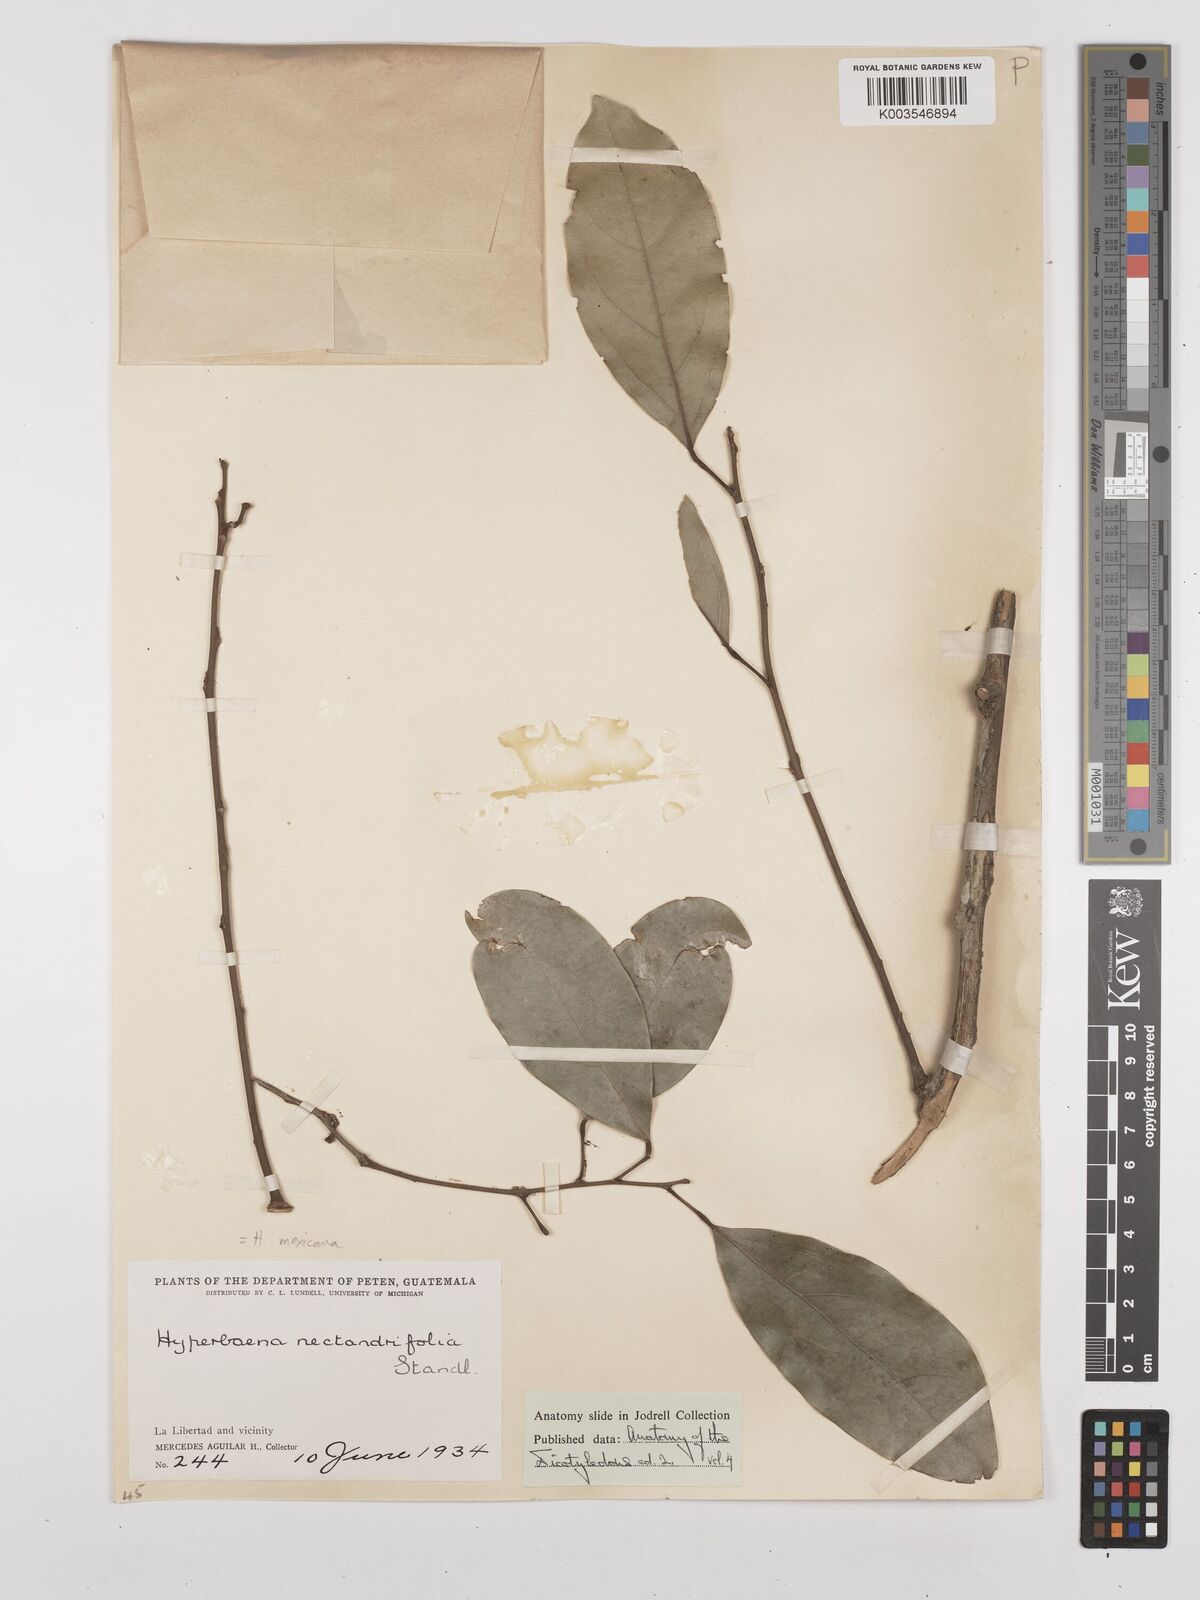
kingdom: Plantae
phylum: Tracheophyta
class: Magnoliopsida
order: Ranunculales
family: Menispermaceae
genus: Hyperbaena
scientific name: Hyperbaena mexicana
